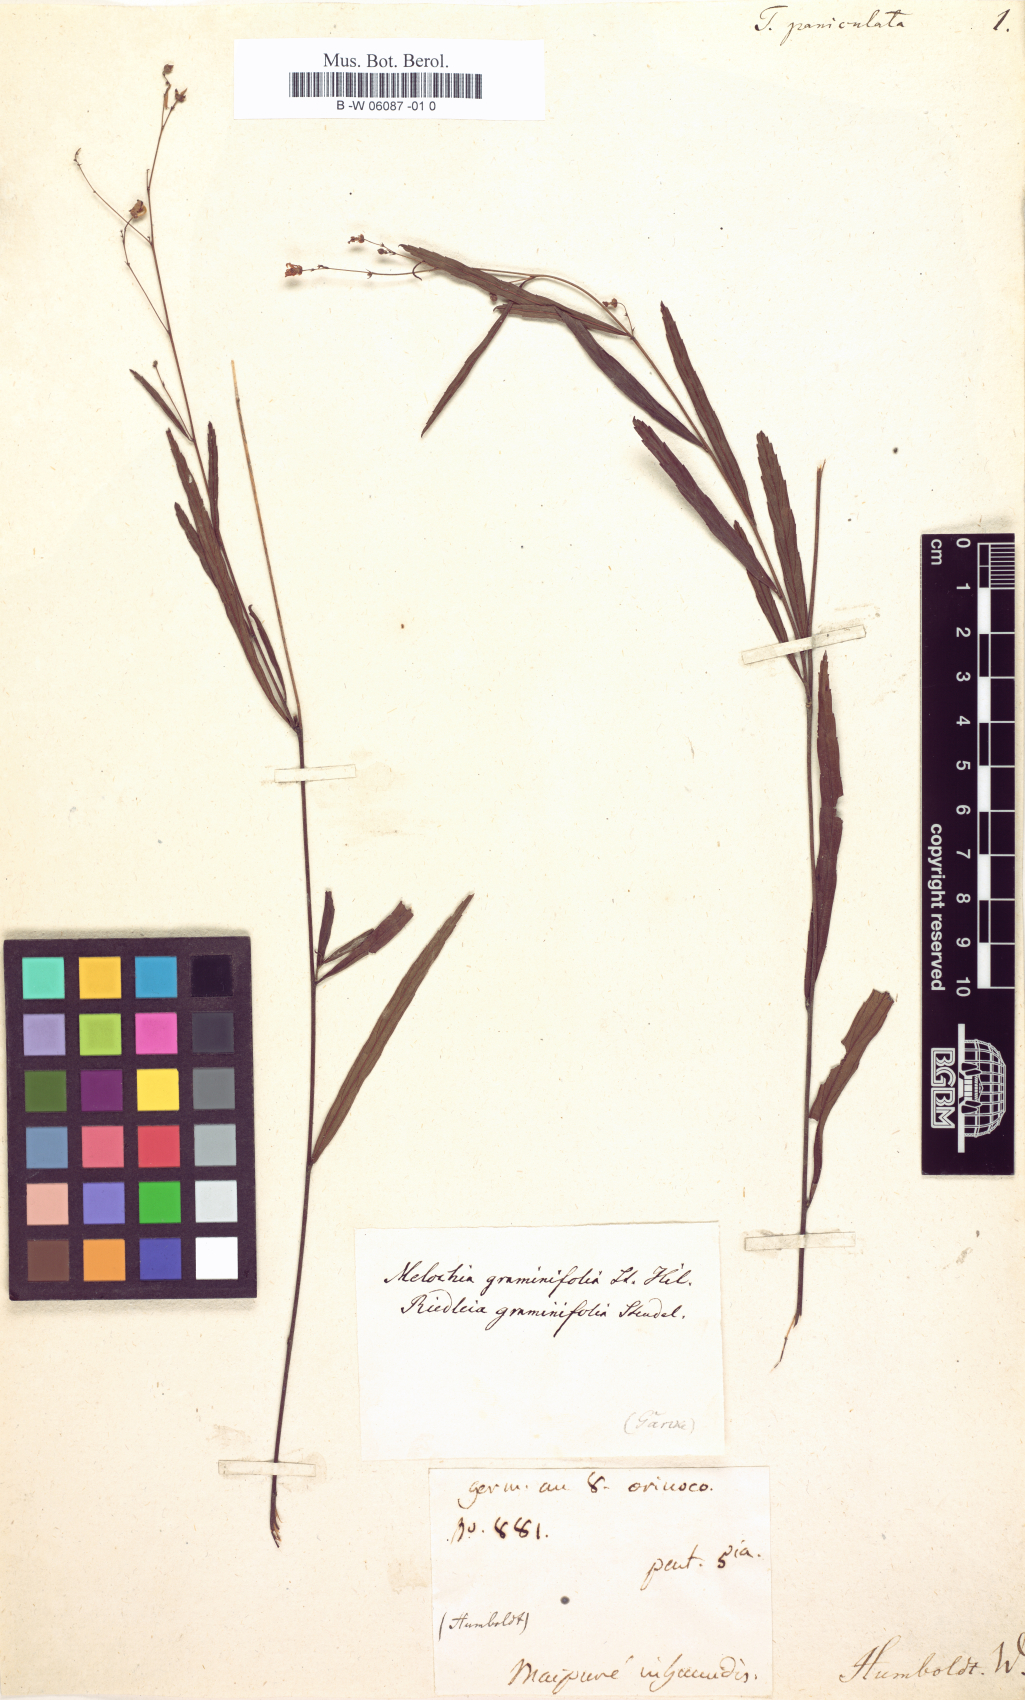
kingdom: Plantae
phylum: Tracheophyta
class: Magnoliopsida
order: Malpighiales
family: Turneraceae
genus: Turnera
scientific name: Turnera paniculata
